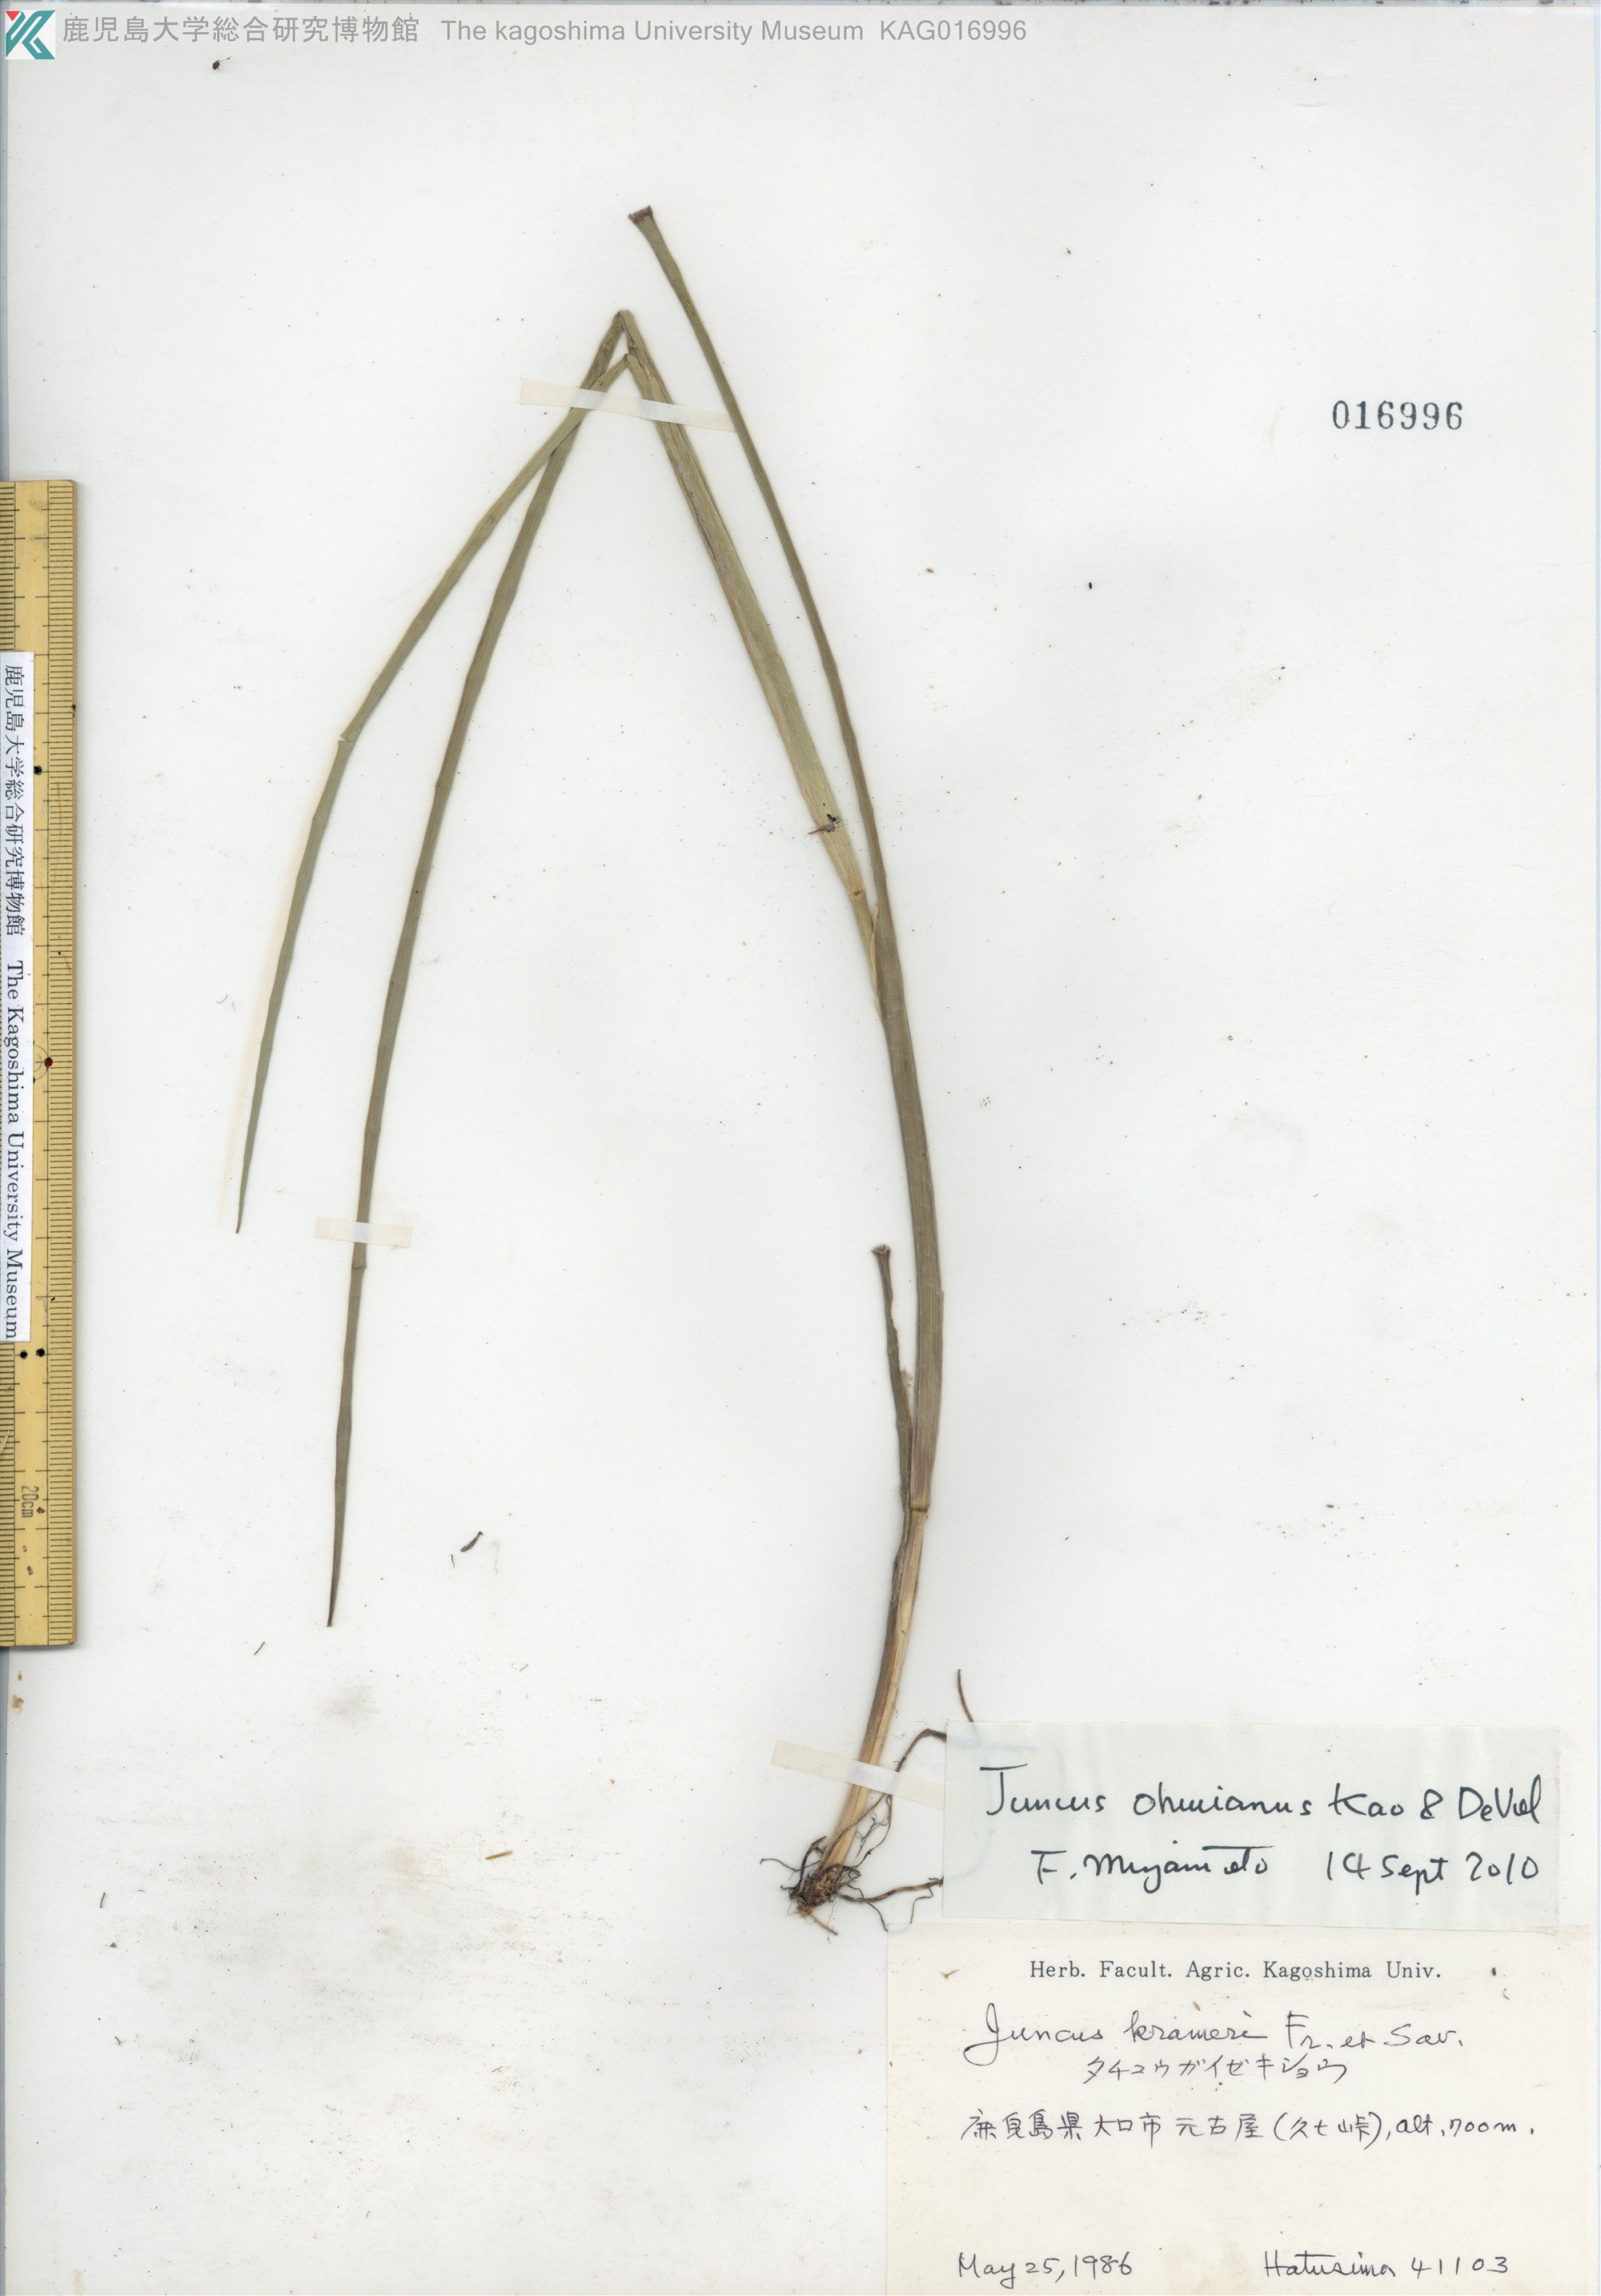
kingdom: Plantae
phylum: Tracheophyta
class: Liliopsida
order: Poales
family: Juncaceae
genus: Juncus
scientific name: Juncus wallichianus
